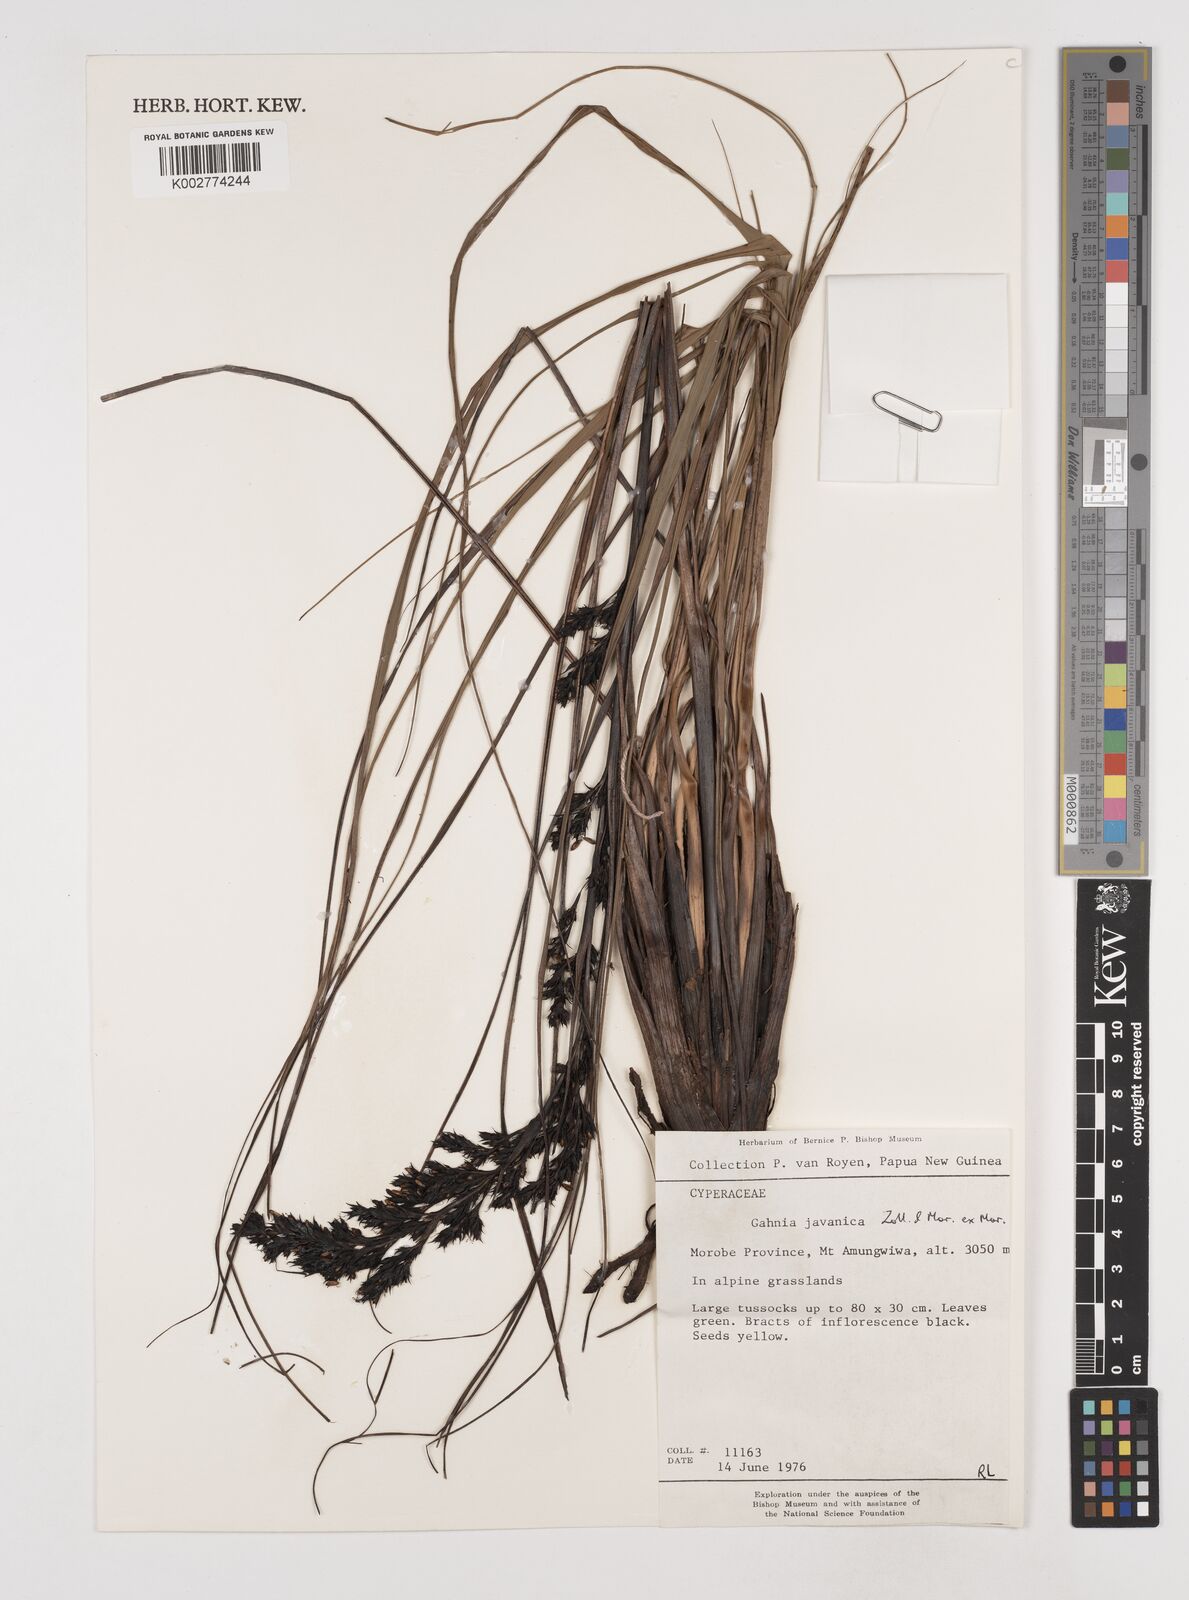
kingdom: Plantae
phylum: Tracheophyta
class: Liliopsida
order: Poales
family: Cyperaceae
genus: Gahnia
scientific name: Gahnia javanica
